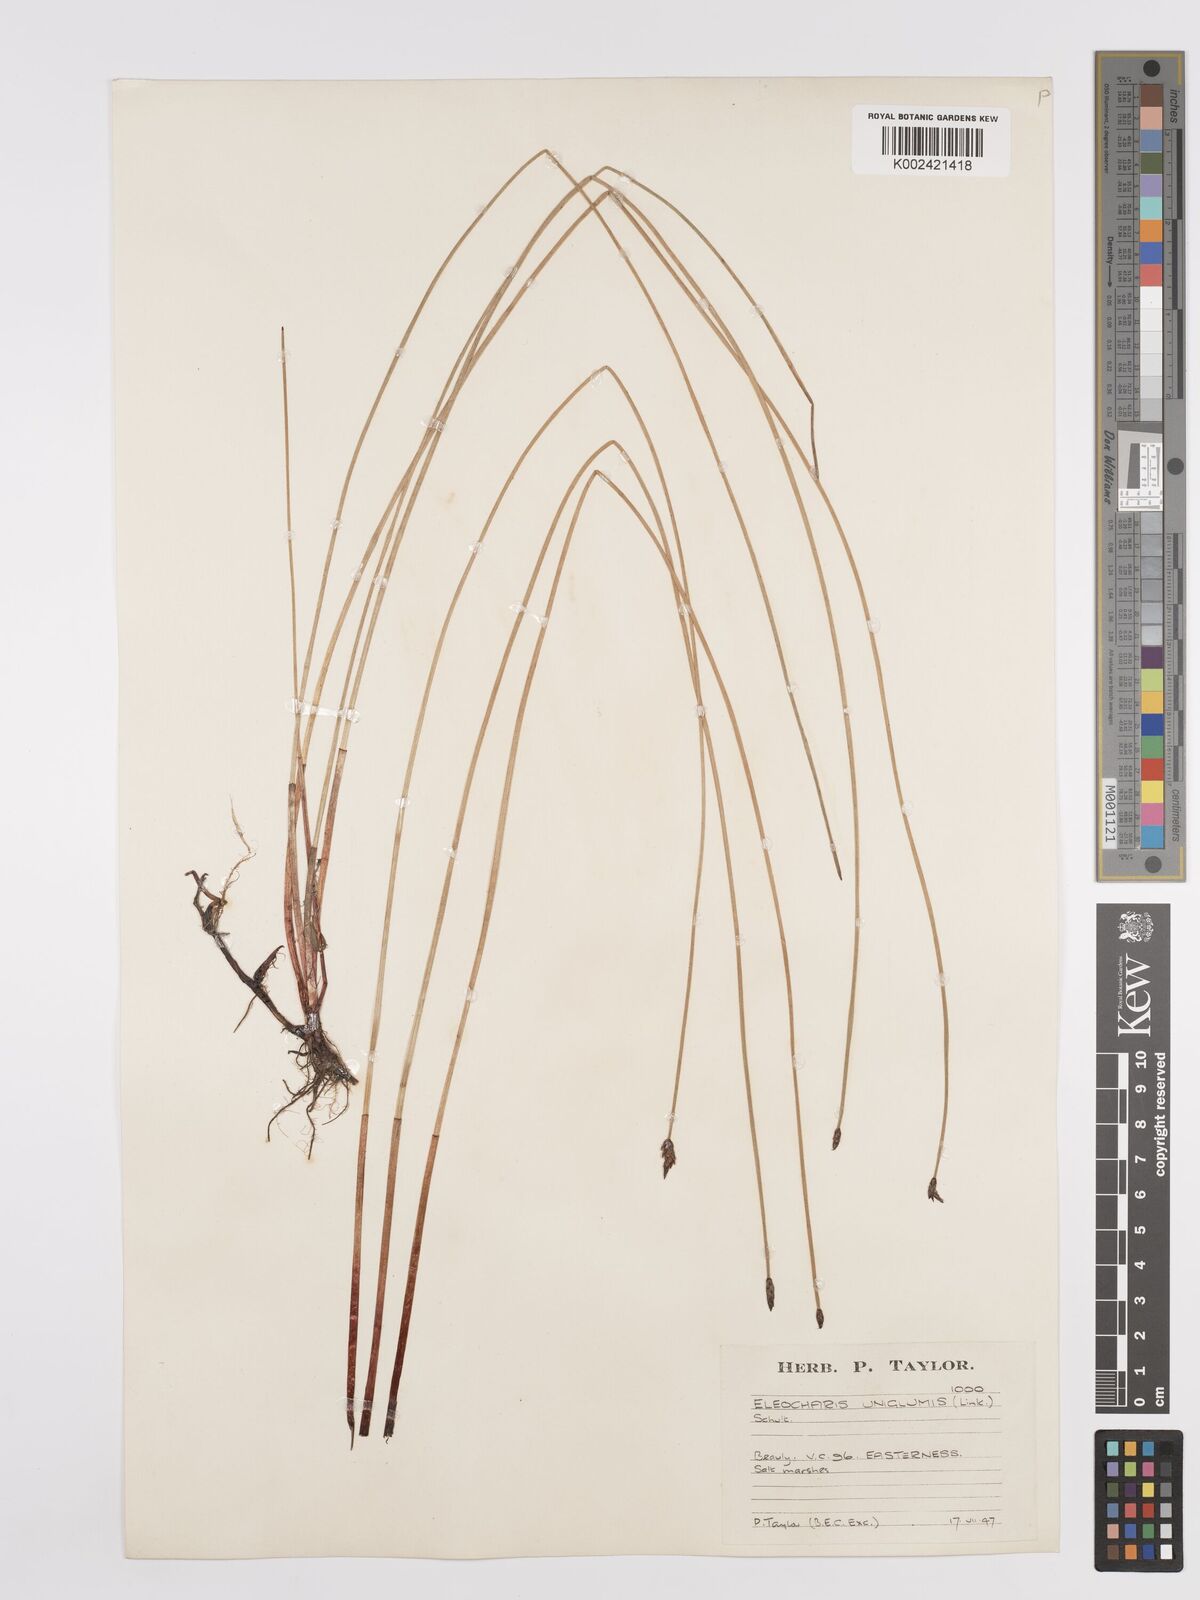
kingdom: Plantae
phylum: Tracheophyta
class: Liliopsida
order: Poales
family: Cyperaceae
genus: Eleocharis
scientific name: Eleocharis uniglumis
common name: Slender spike-rush
